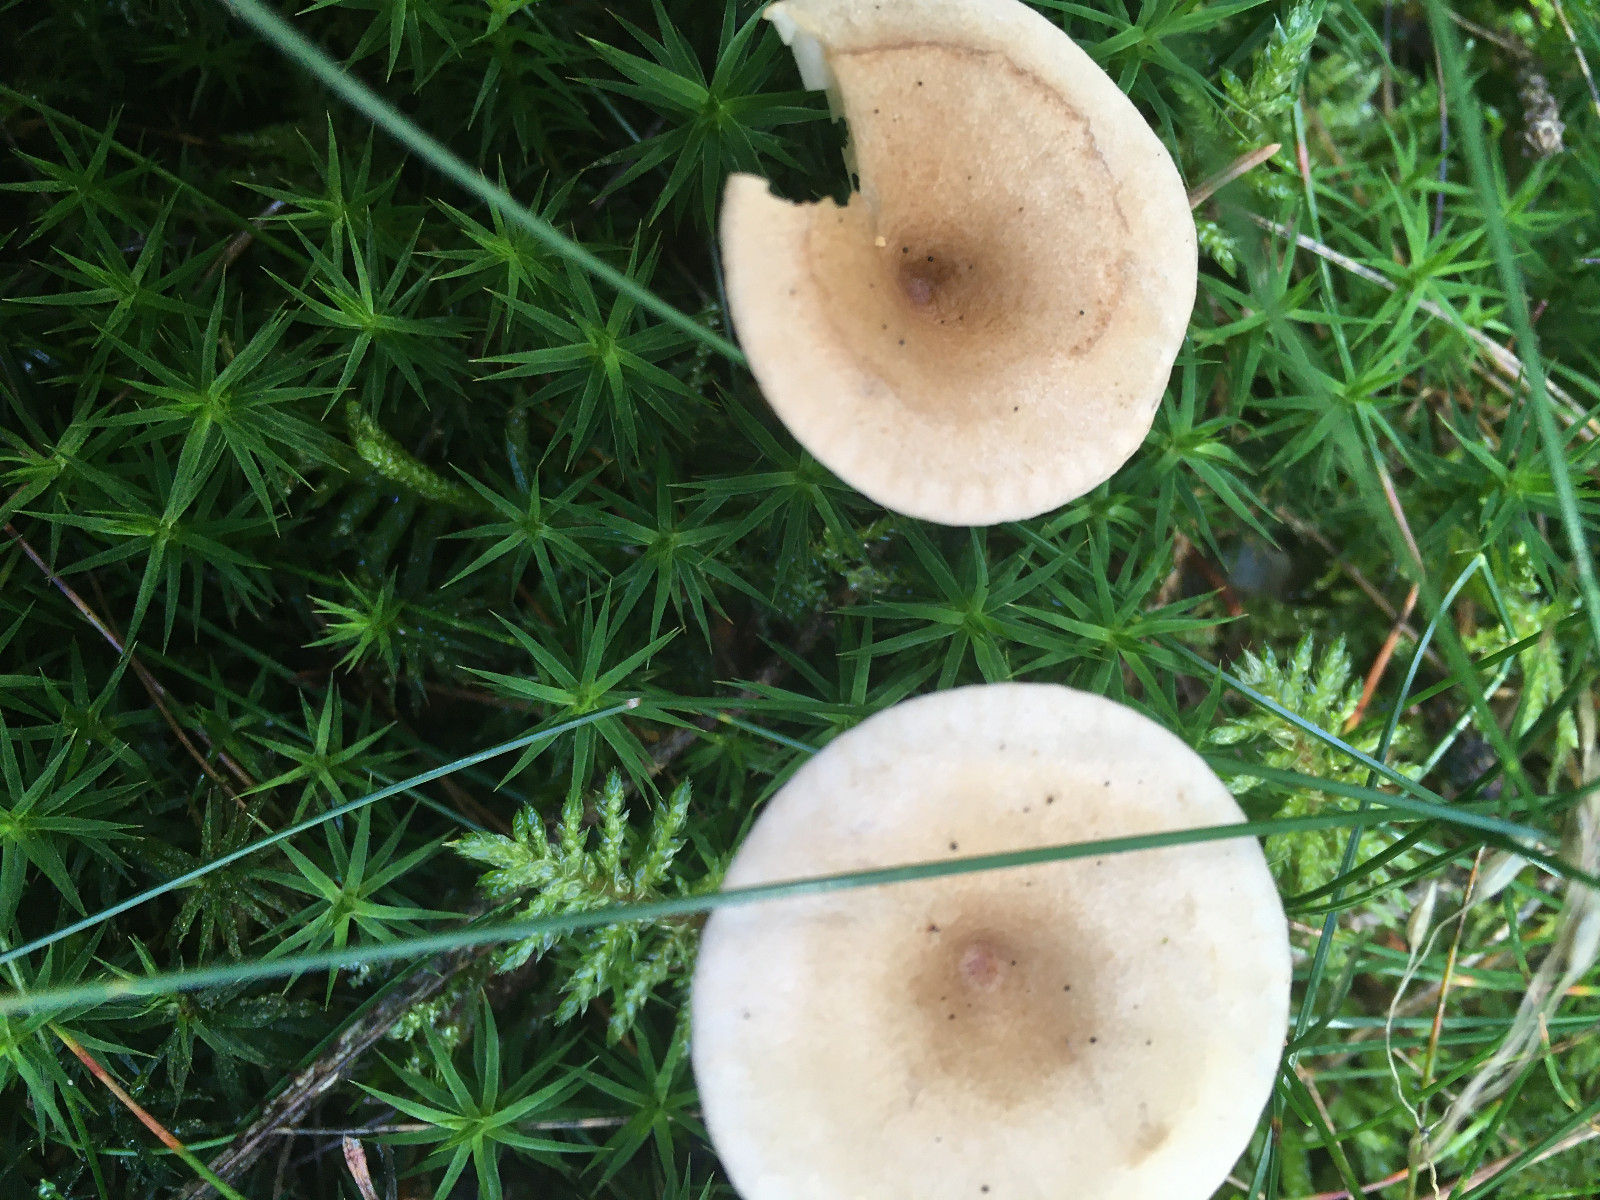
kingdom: Fungi
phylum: Basidiomycota
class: Agaricomycetes
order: Agaricales
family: Tricholomataceae
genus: Infundibulicybe
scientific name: Infundibulicybe gibba
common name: almindelig tragthat
